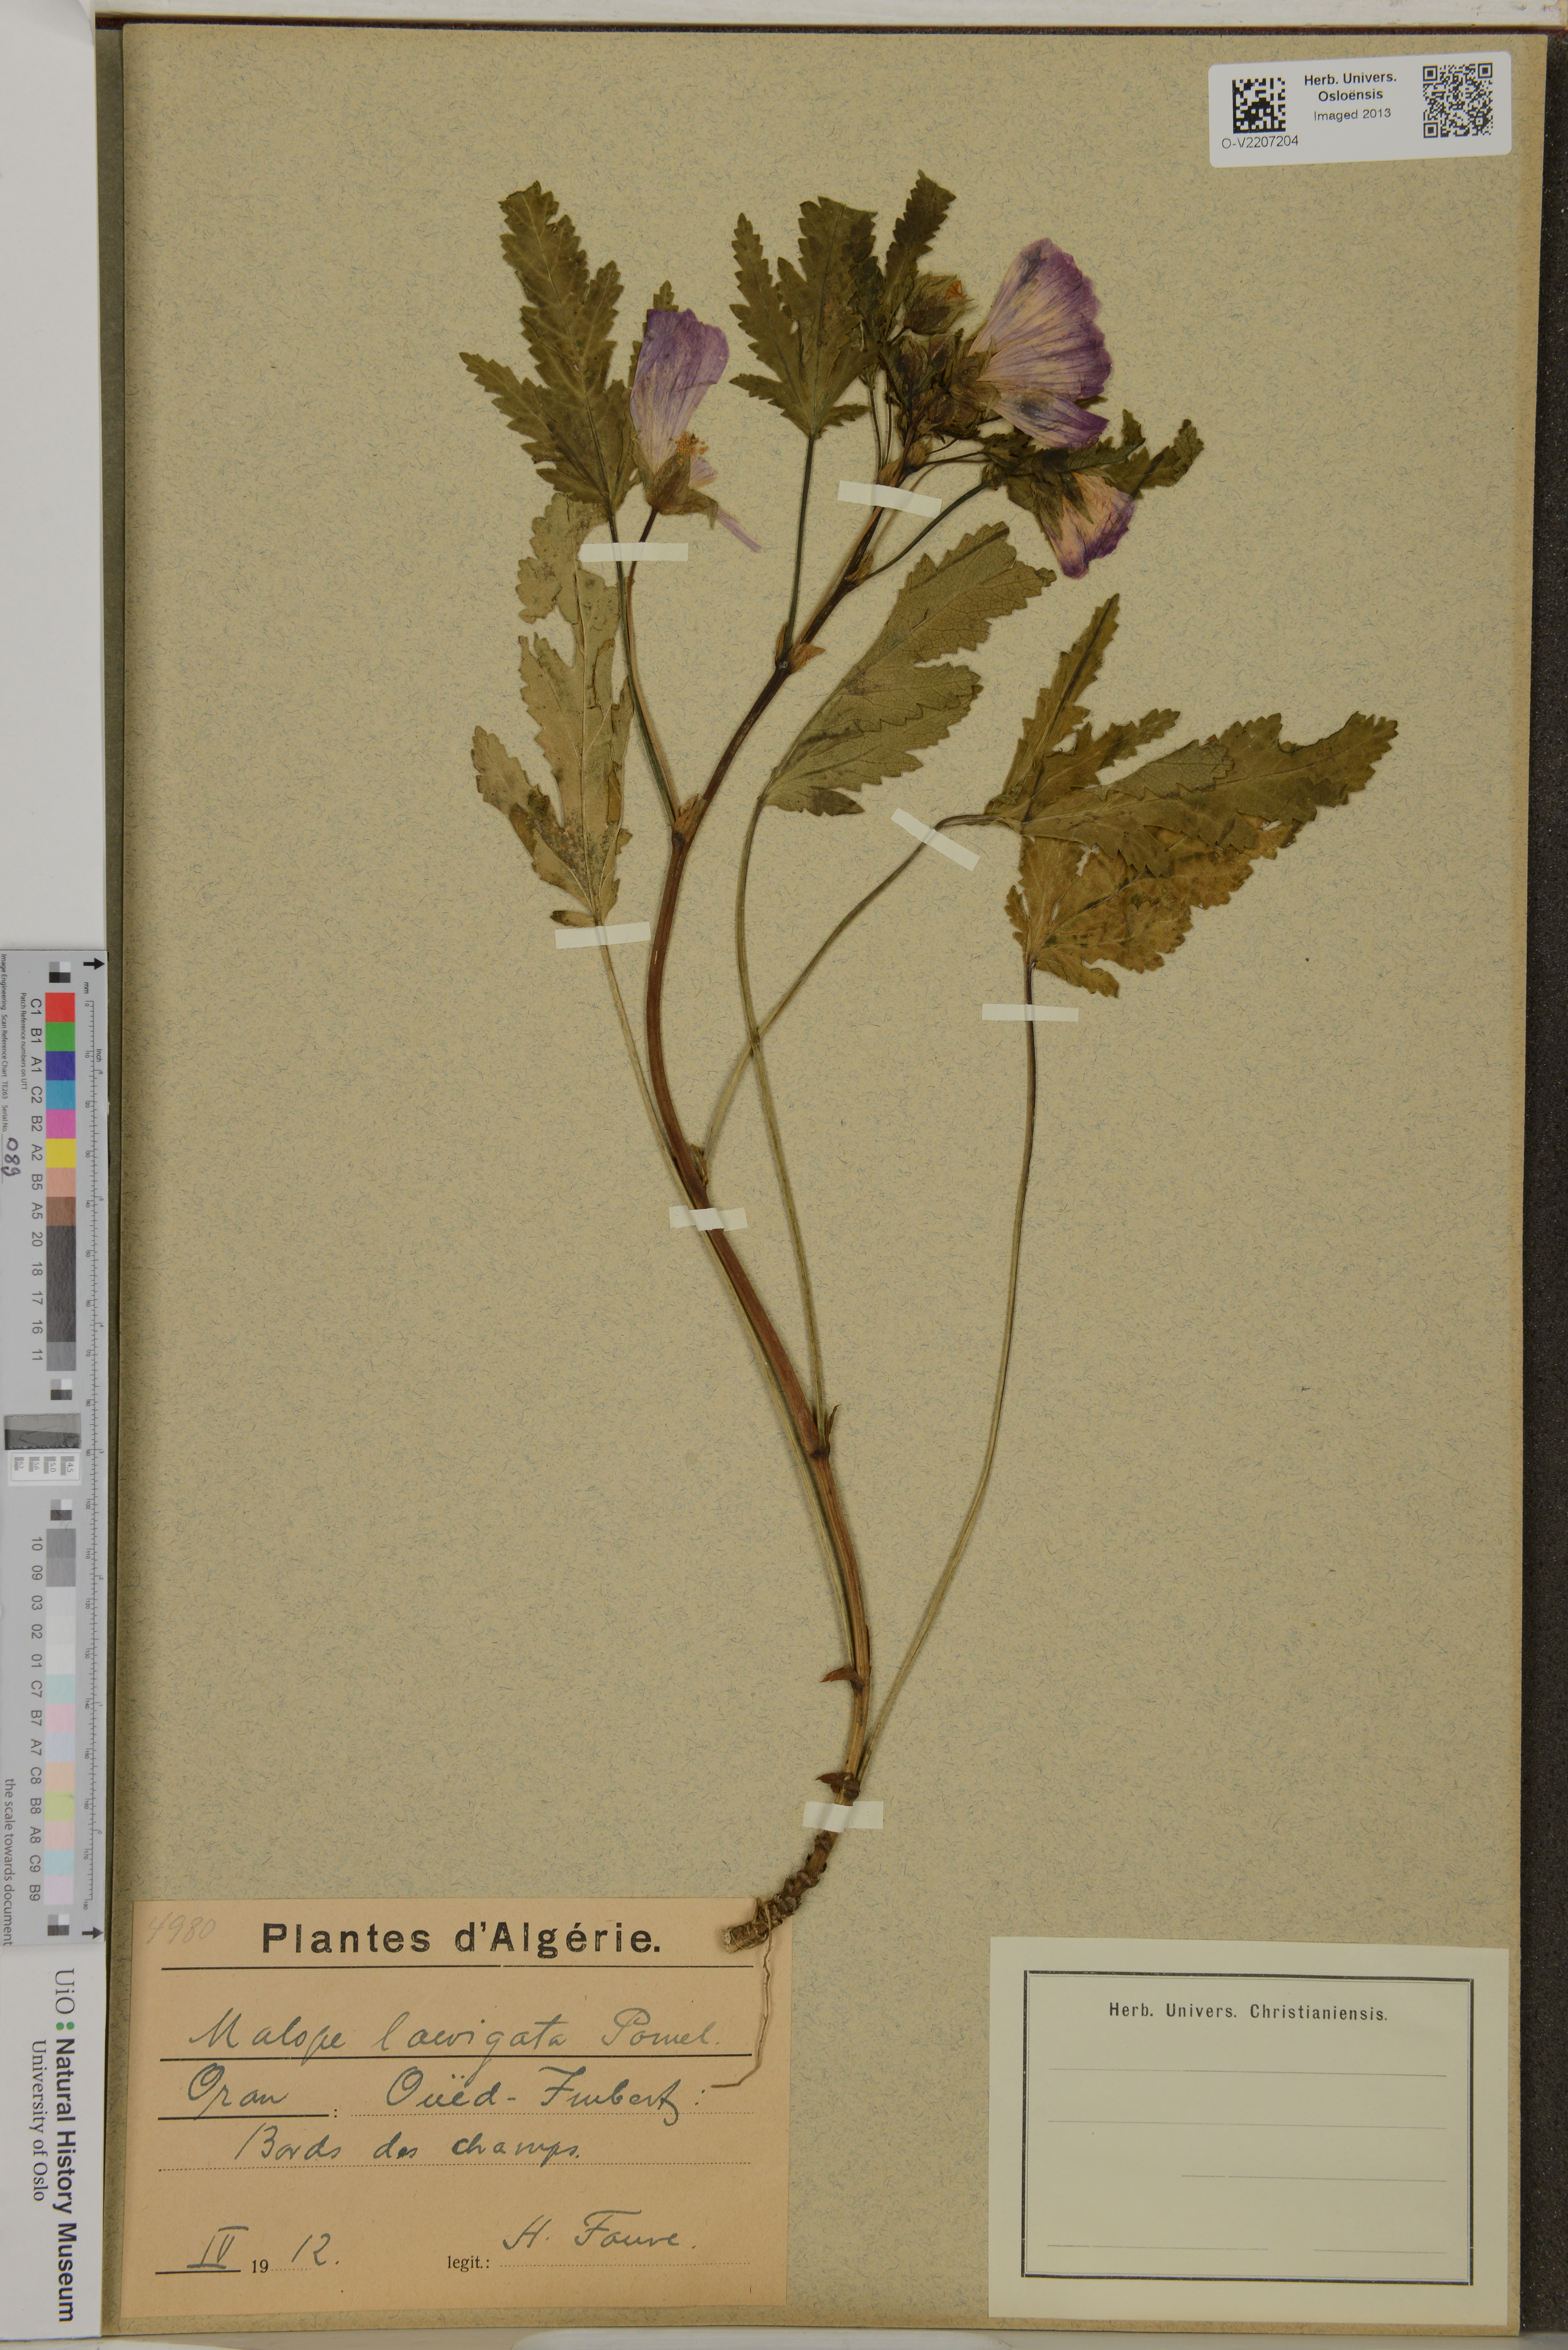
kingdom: Plantae
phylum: Tracheophyta
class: Magnoliopsida
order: Malvales
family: Malvaceae
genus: Malope
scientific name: Malope malacoides
